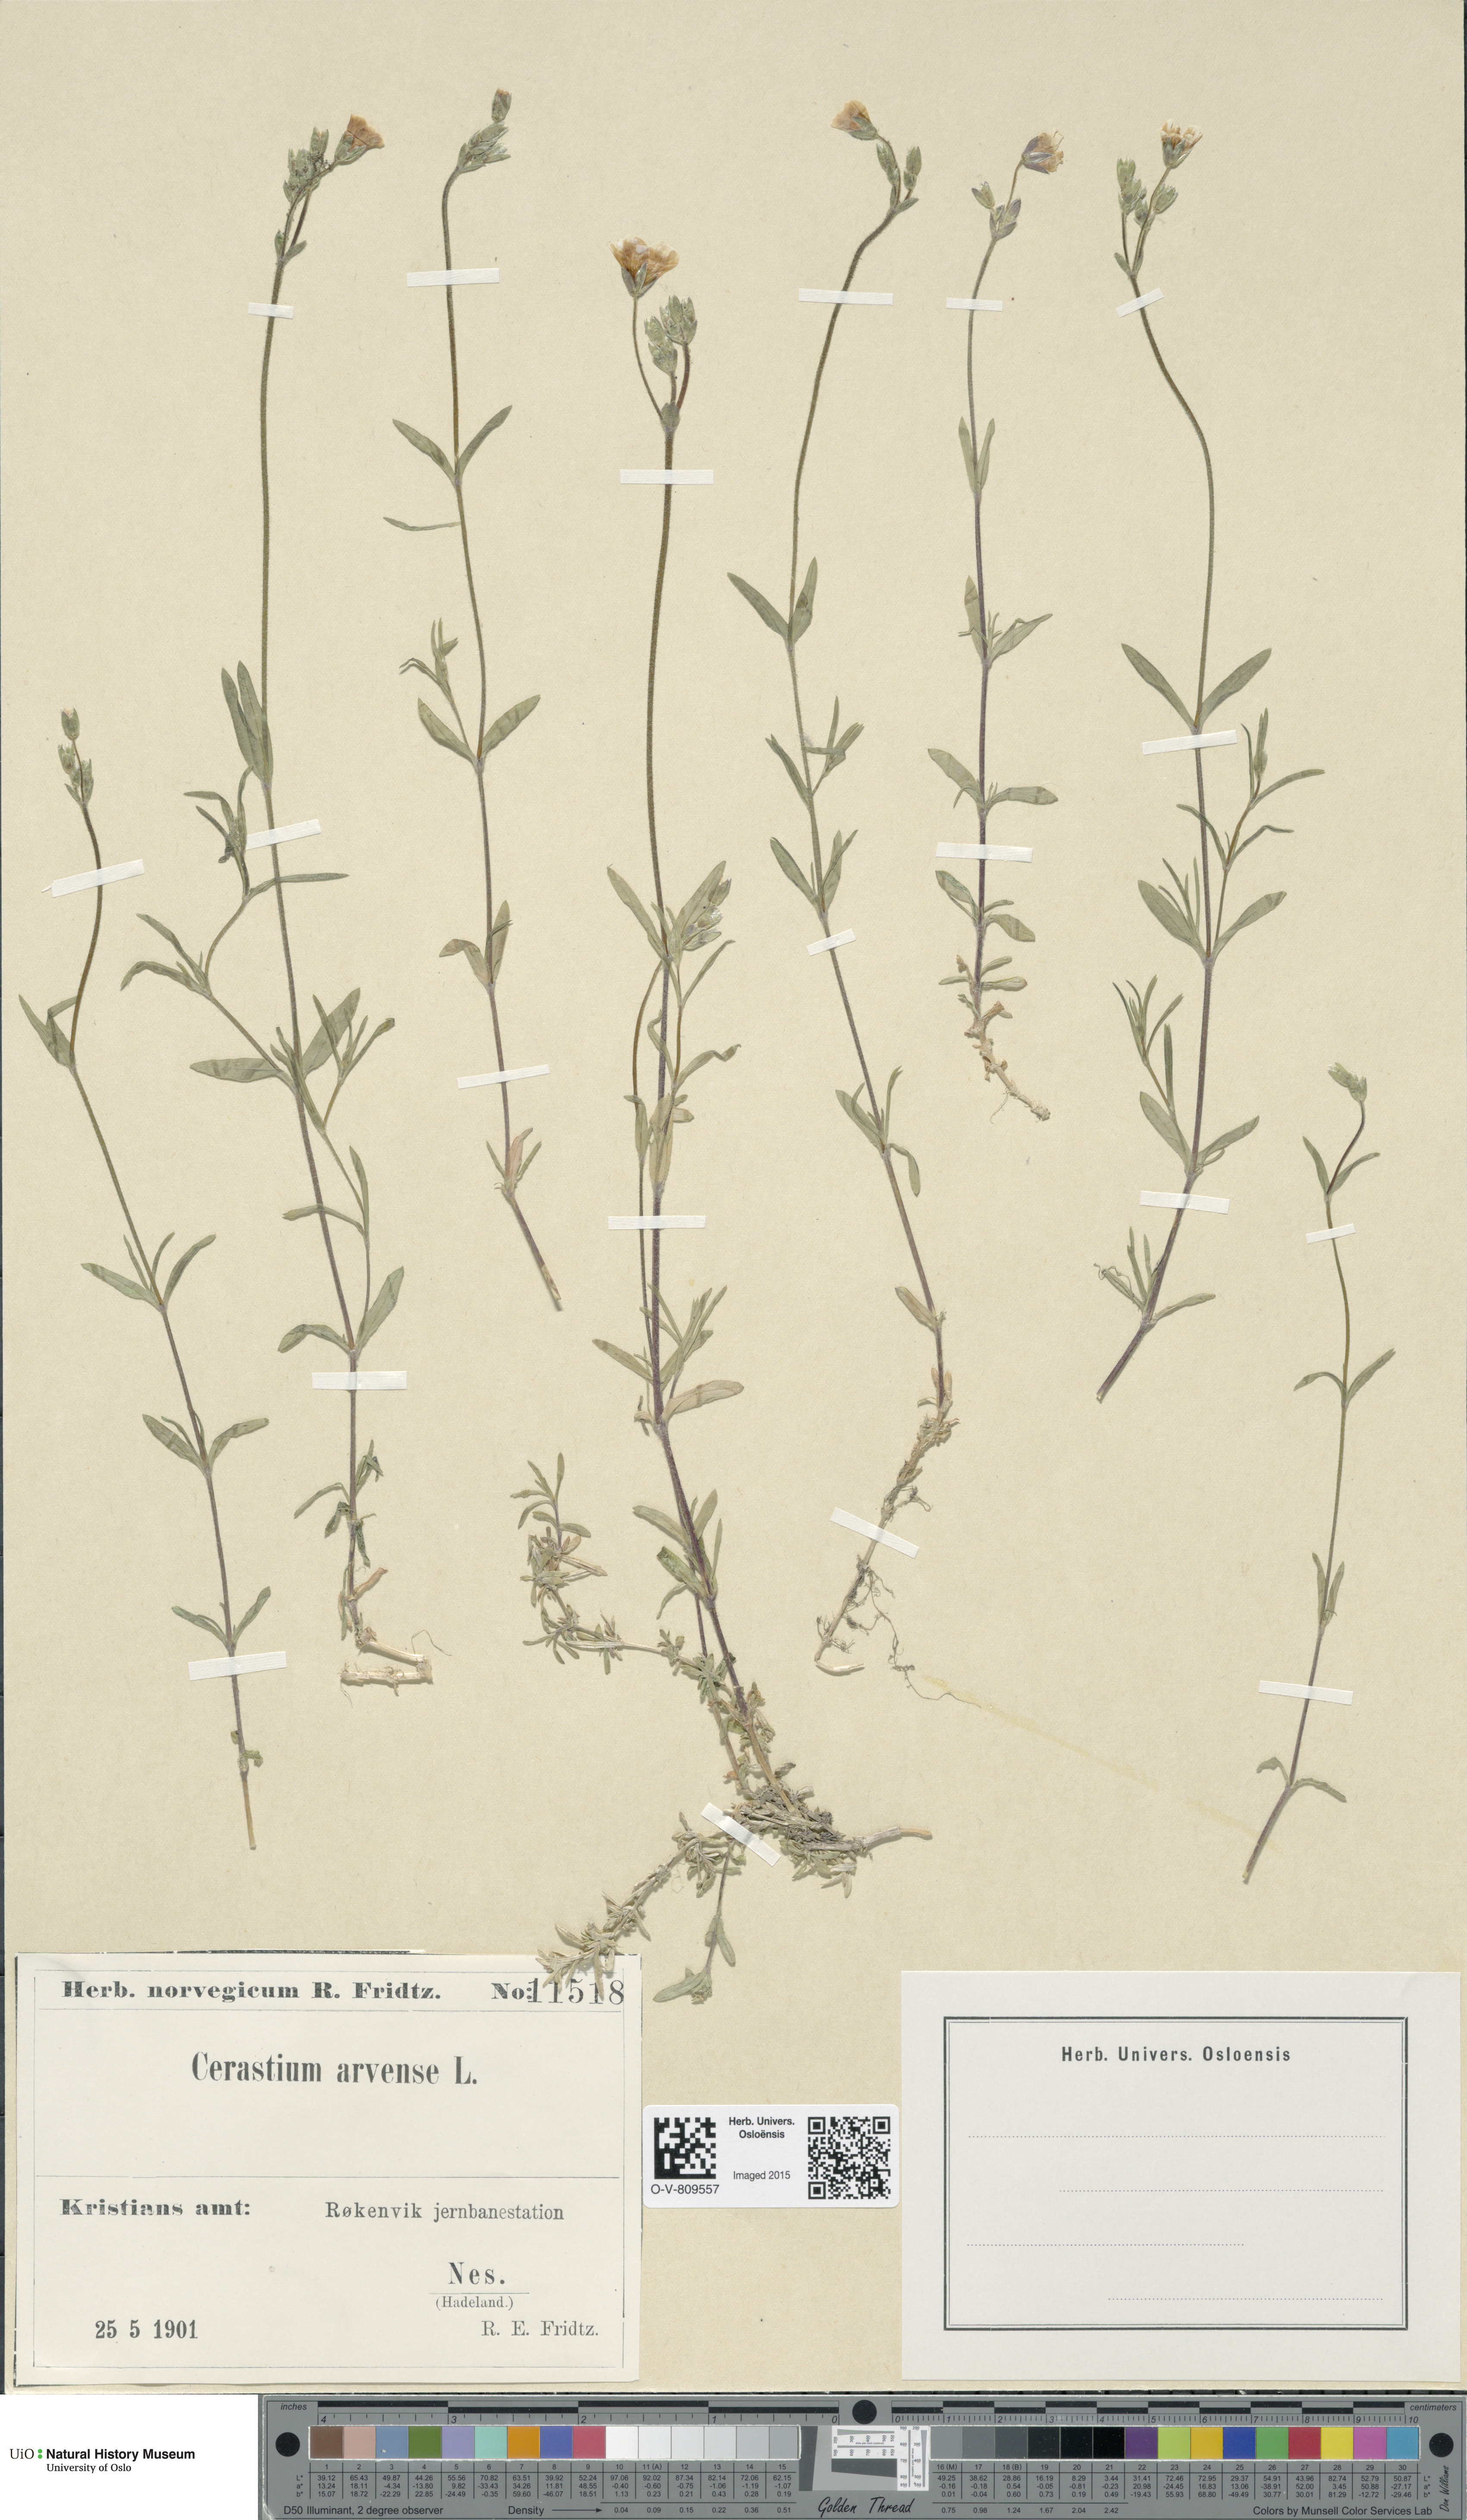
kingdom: Plantae
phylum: Tracheophyta
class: Magnoliopsida
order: Caryophyllales
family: Caryophyllaceae
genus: Cerastium
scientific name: Cerastium arvense
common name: Field mouse-ear
